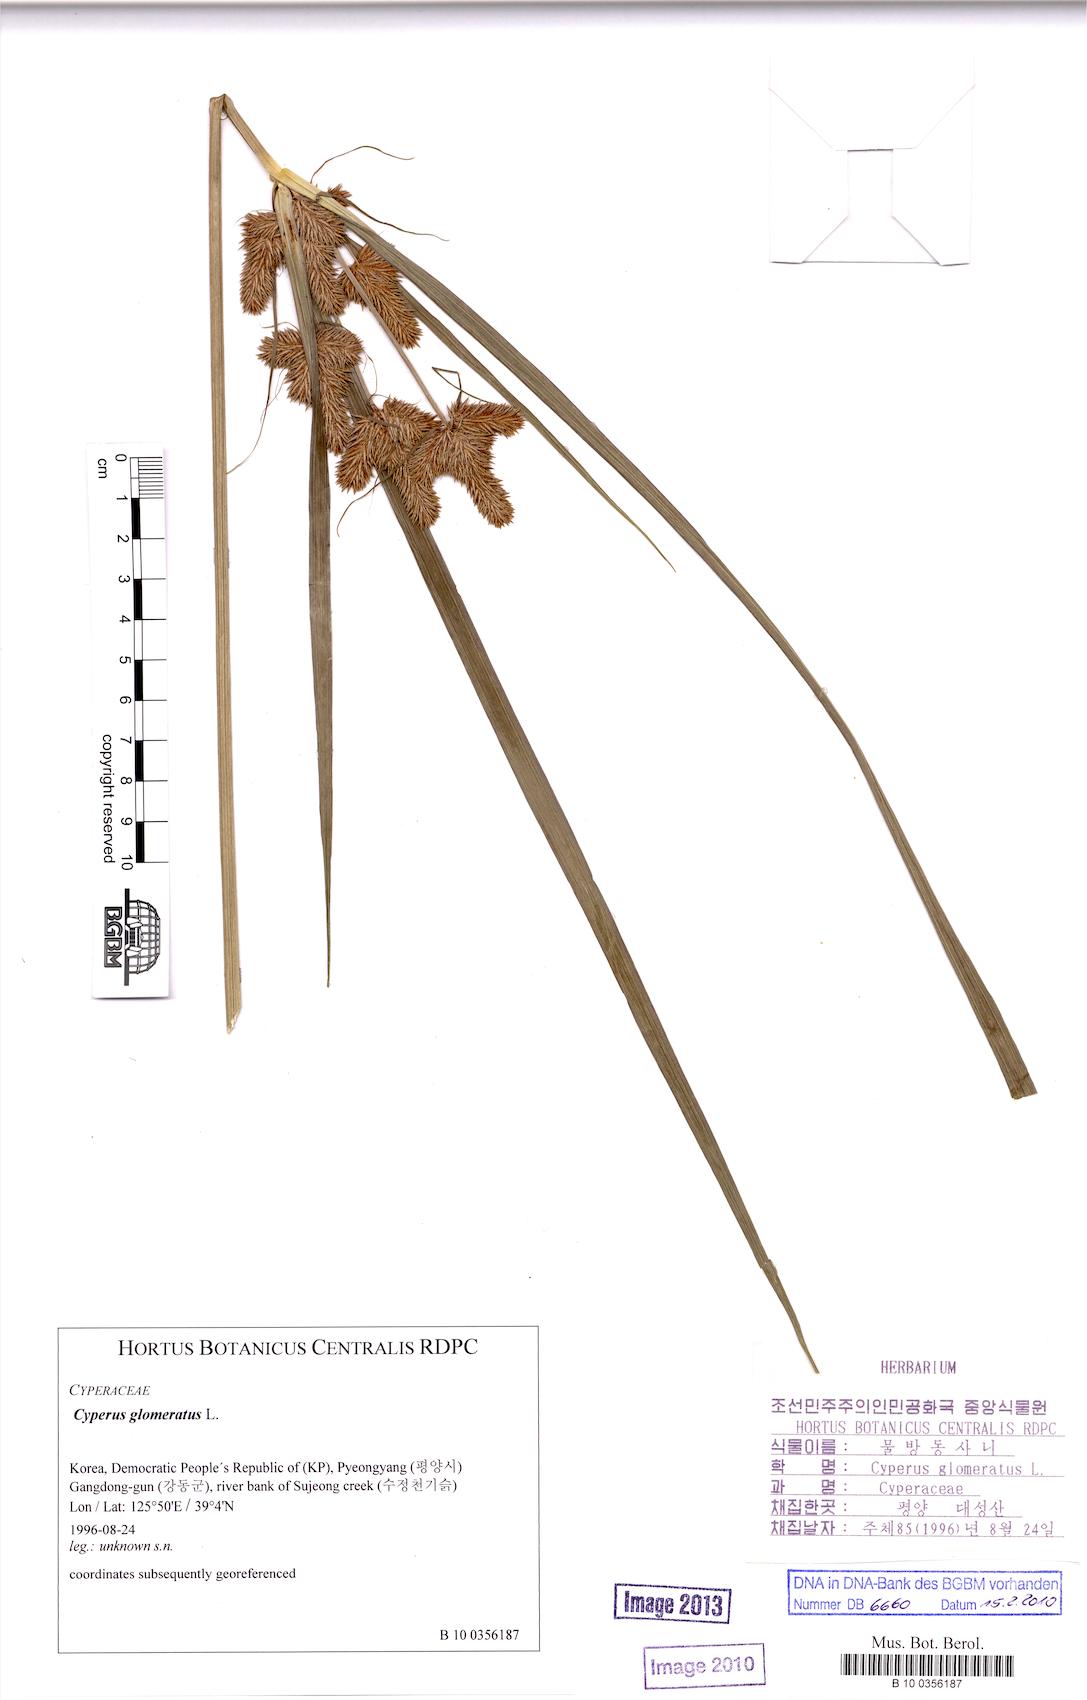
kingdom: Plantae
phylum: Tracheophyta
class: Liliopsida
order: Poales
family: Cyperaceae
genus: Cyperus
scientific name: Cyperus glomeratus
